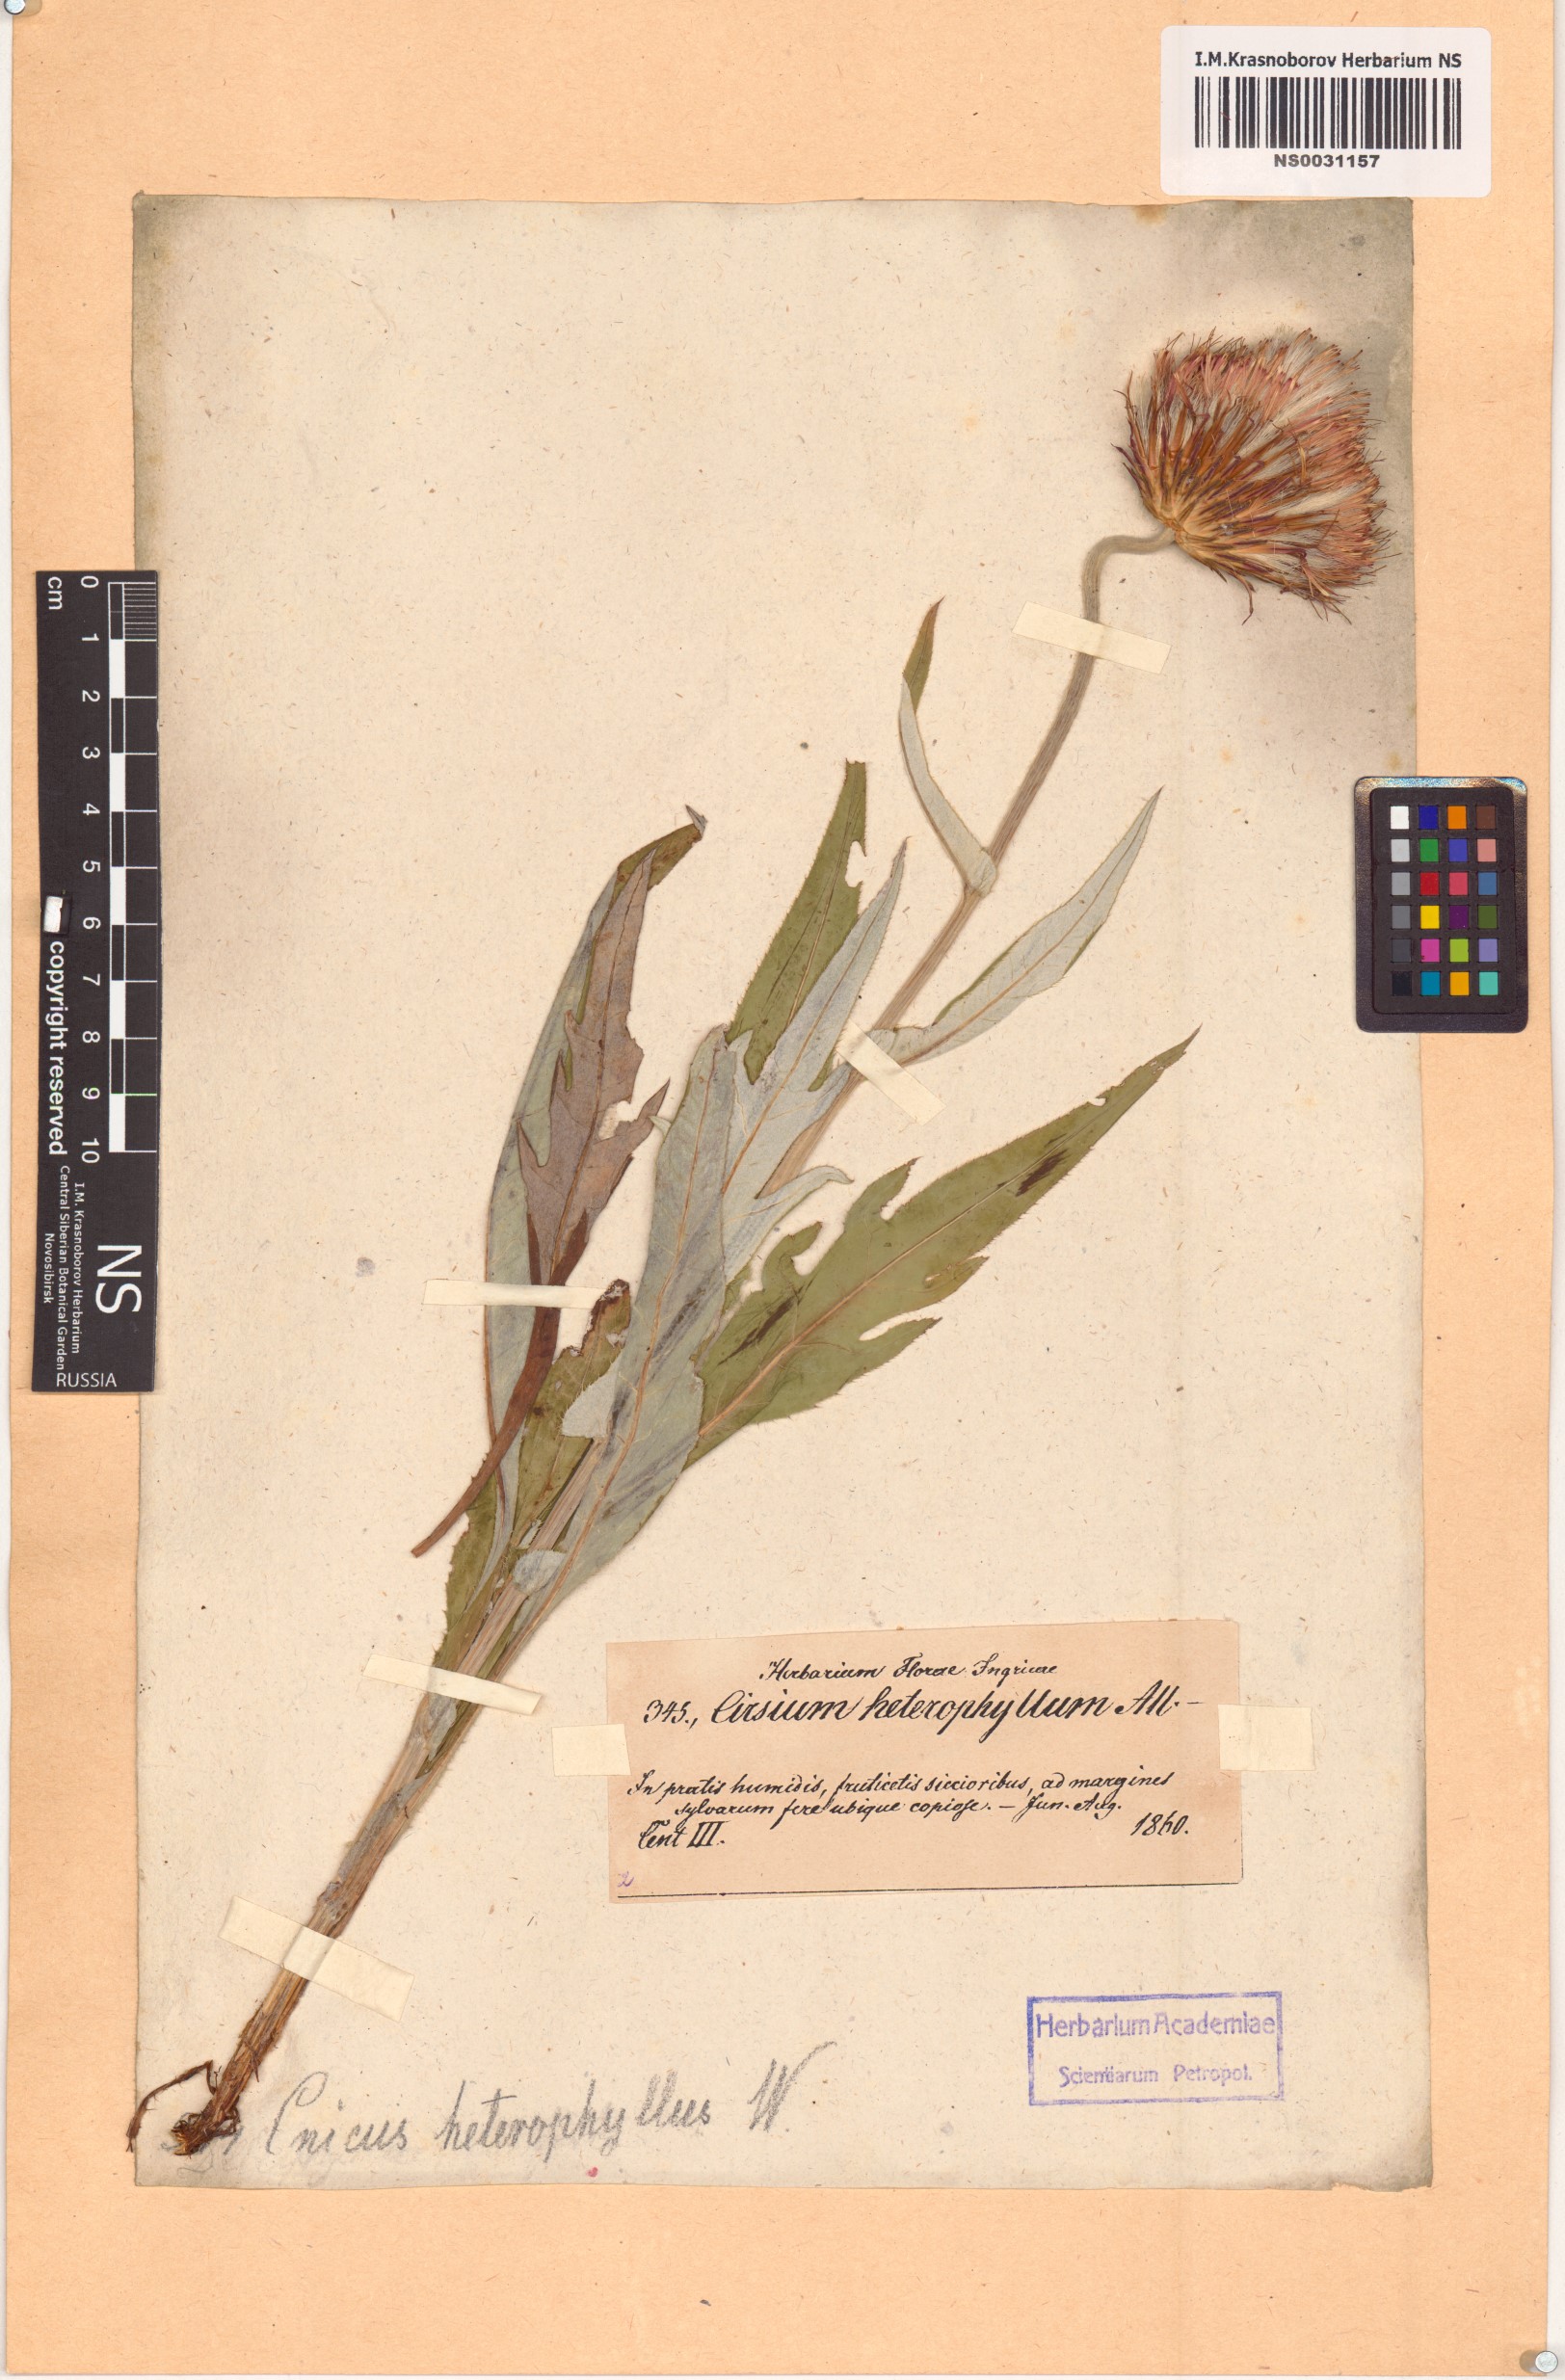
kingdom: Plantae
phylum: Tracheophyta
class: Magnoliopsida
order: Asterales
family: Asteraceae
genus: Cirsium
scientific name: Cirsium heterophyllum
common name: Melancholy thistle
